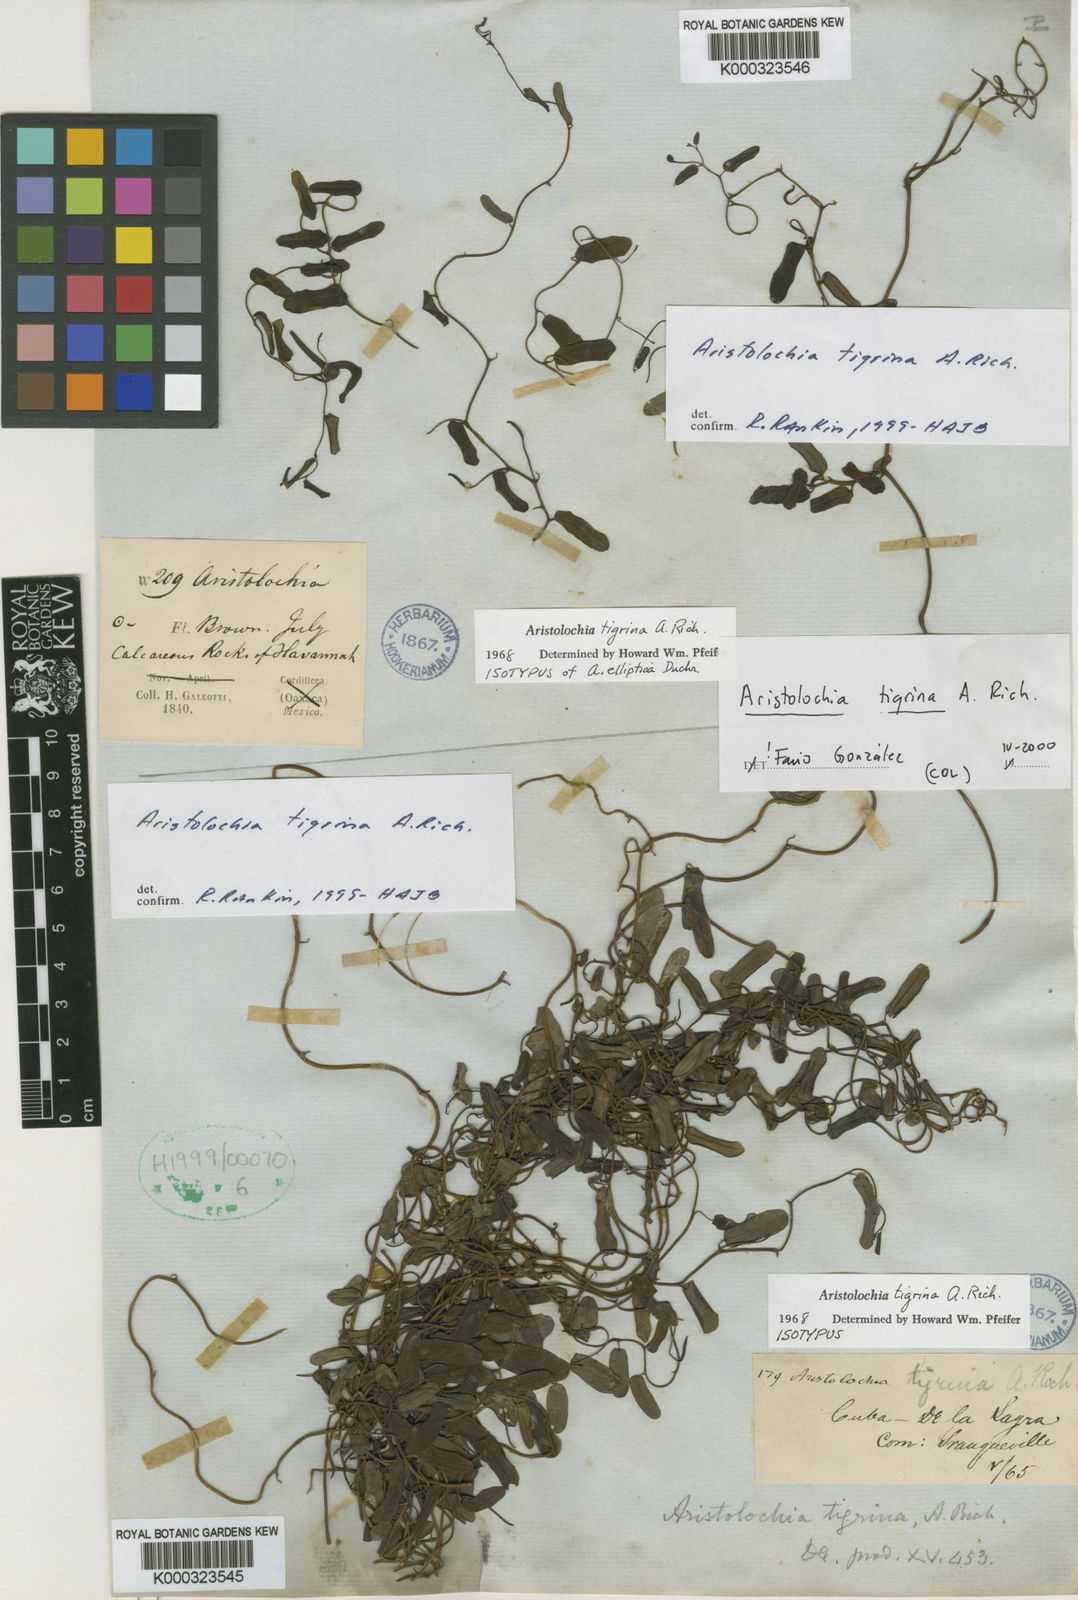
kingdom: Plantae
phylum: Tracheophyta
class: Magnoliopsida
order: Piperales
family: Aristolochiaceae
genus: Aristolochia
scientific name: Aristolochia tigrina
